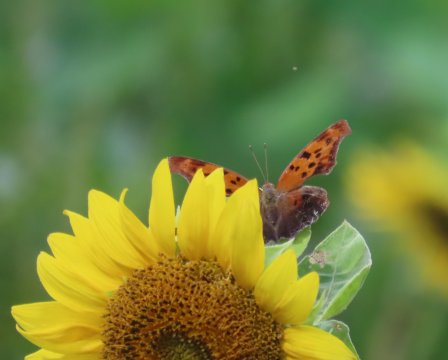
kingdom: Animalia
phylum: Arthropoda
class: Insecta
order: Lepidoptera
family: Nymphalidae
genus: Polygonia
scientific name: Polygonia interrogationis
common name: Question Mark
